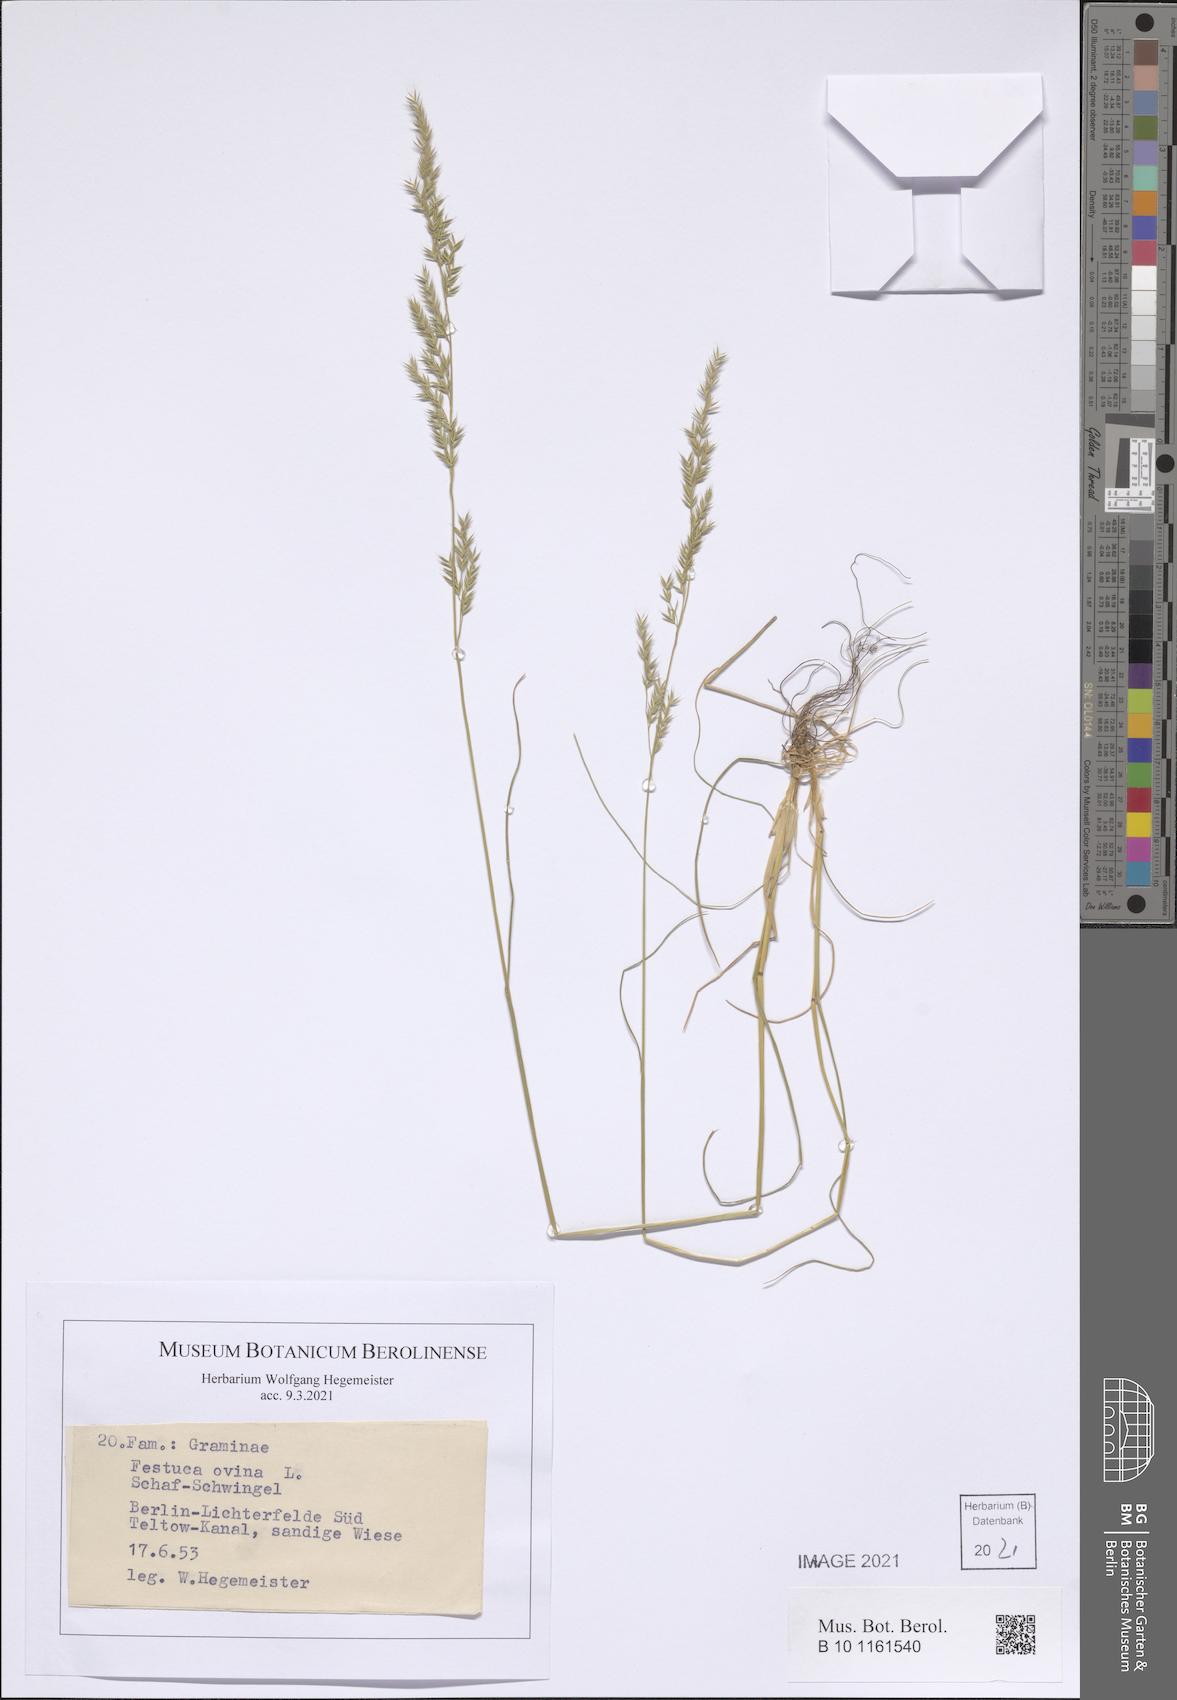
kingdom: Plantae
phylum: Tracheophyta
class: Liliopsida
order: Poales
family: Poaceae
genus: Festuca
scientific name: Festuca ovina
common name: Sheep fescue
